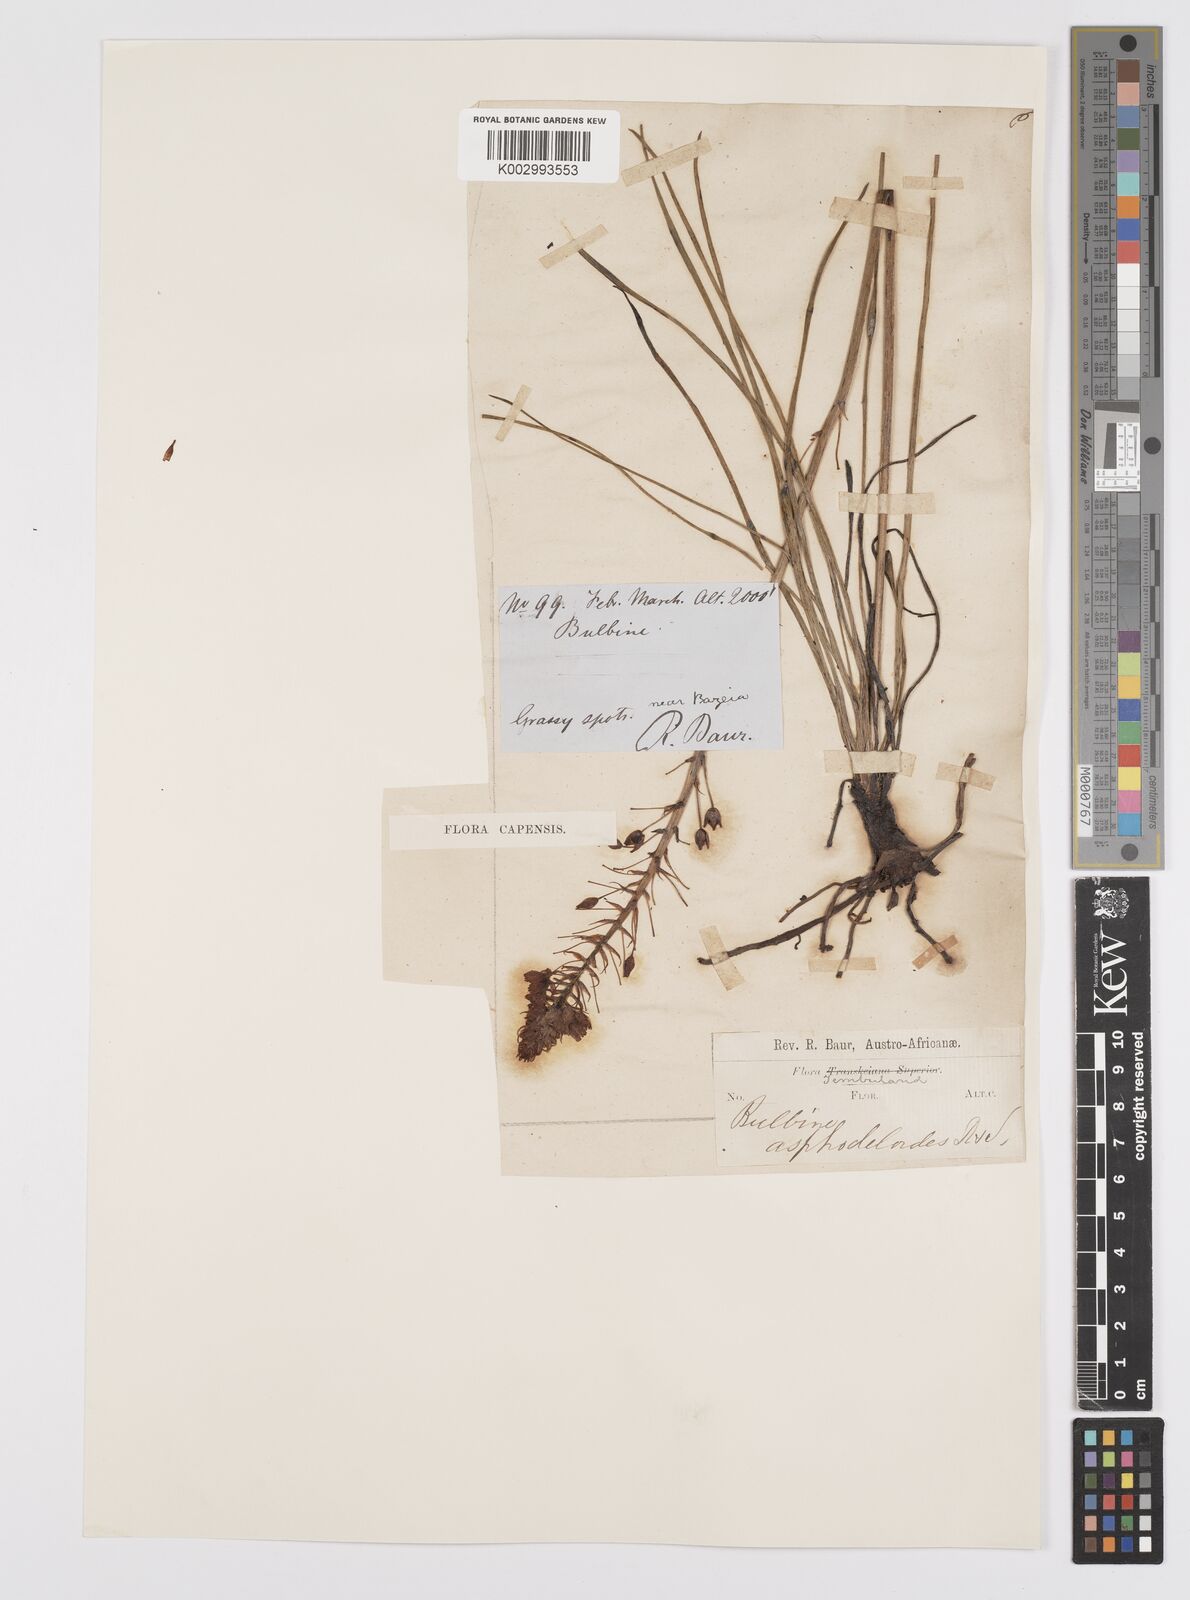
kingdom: Plantae
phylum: Tracheophyta
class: Liliopsida
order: Asparagales
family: Asphodelaceae
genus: Bulbine
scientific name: Bulbine abyssinica
